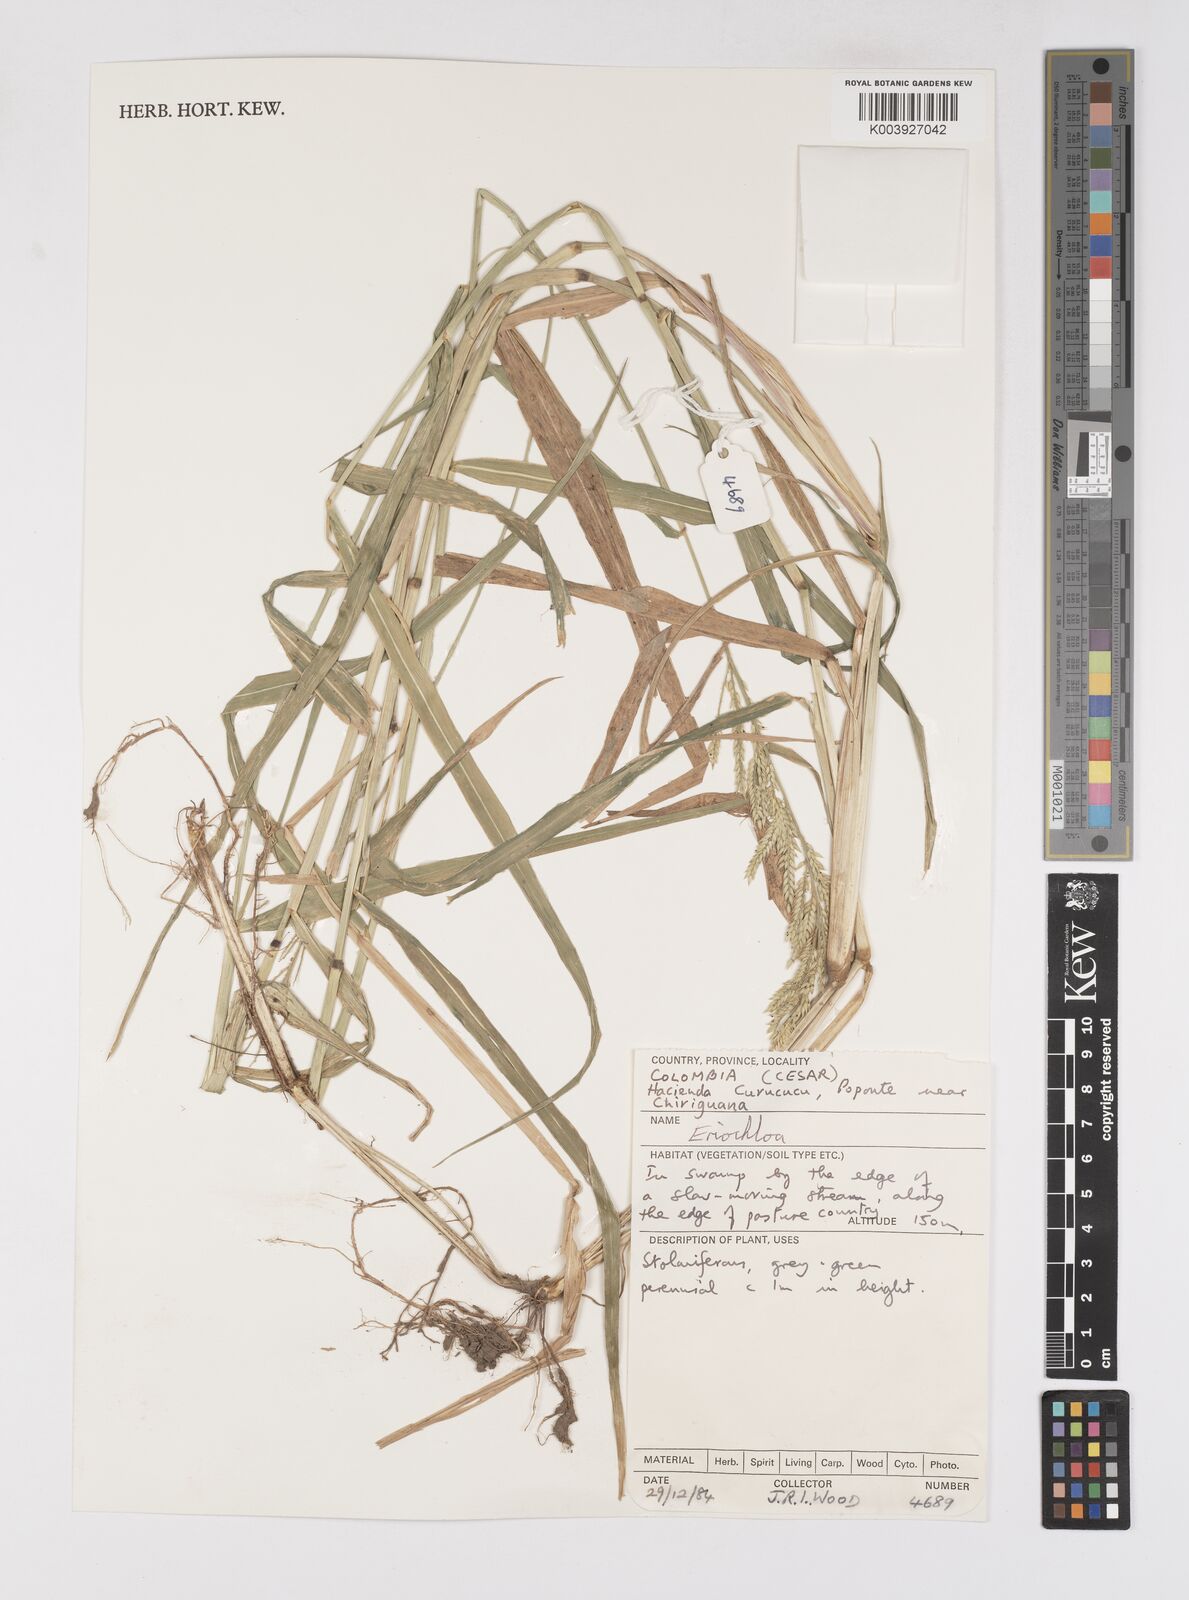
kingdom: Plantae
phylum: Tracheophyta
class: Liliopsida
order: Poales
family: Poaceae
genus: Eriochloa
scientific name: Eriochloa punctata
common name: Louisiana cupgrass
